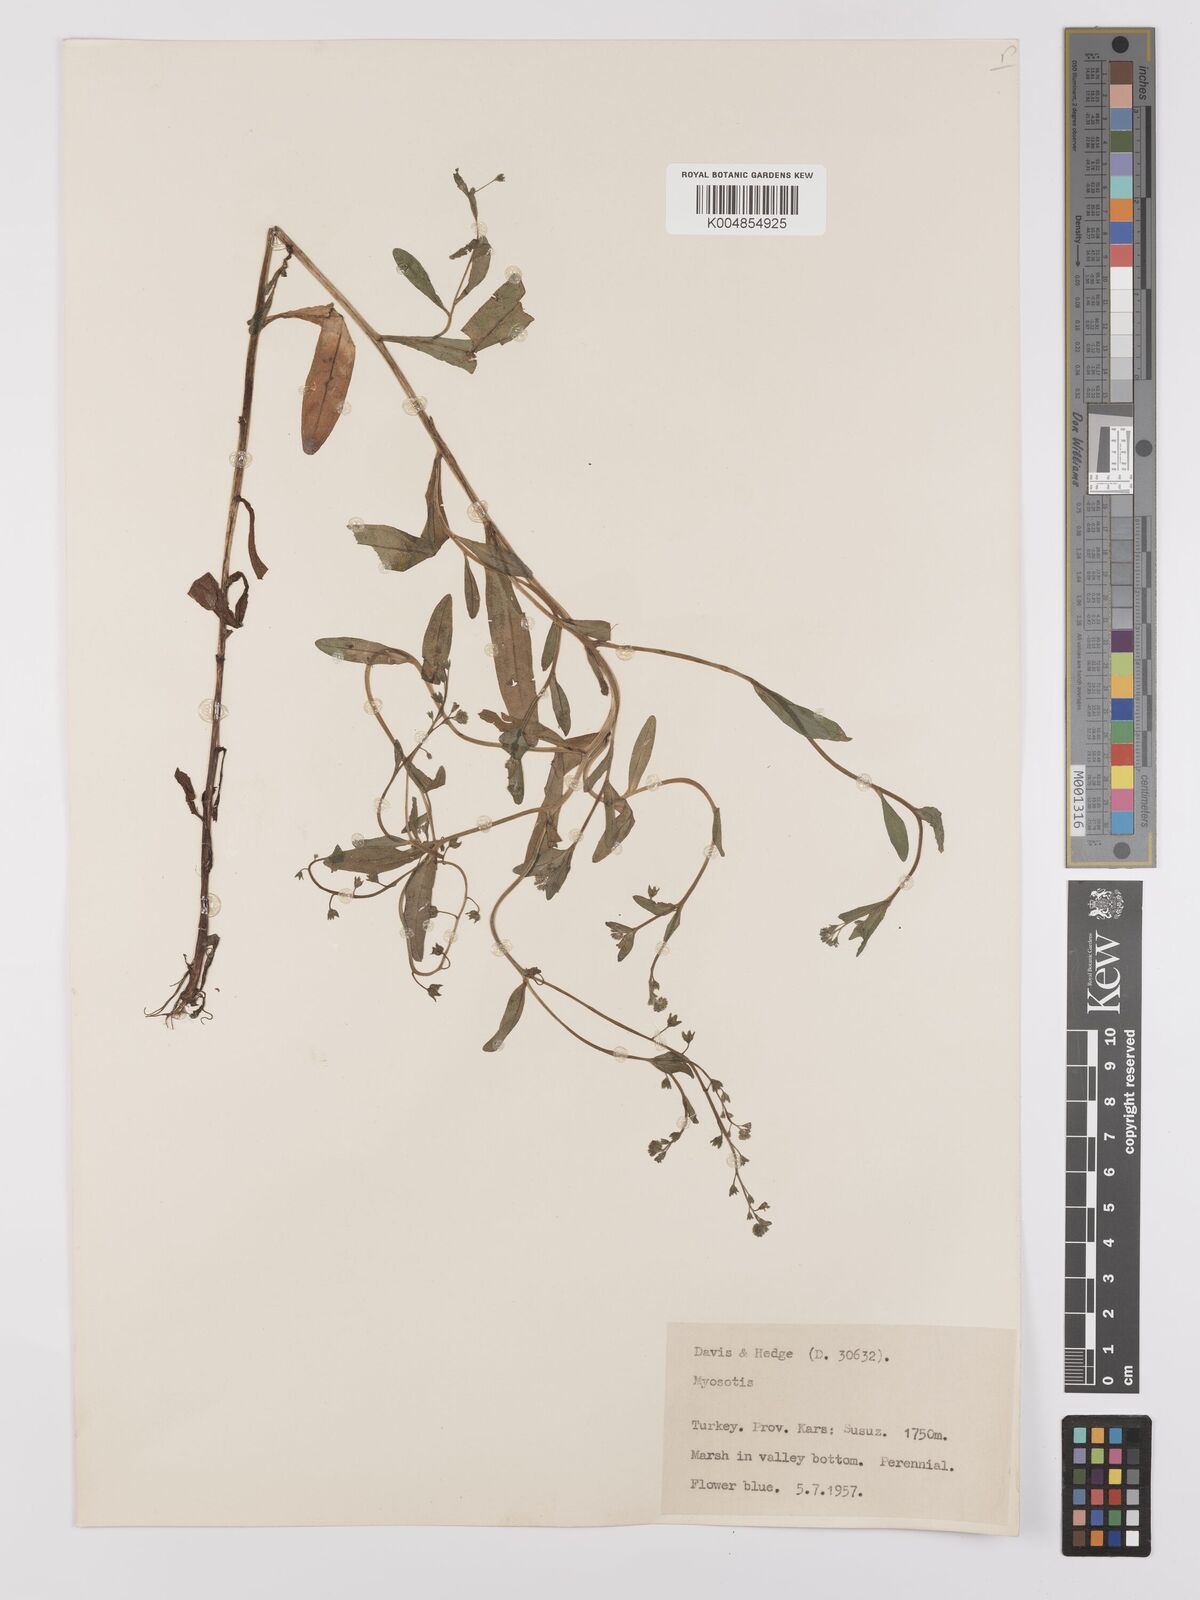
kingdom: Plantae
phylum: Tracheophyta
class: Magnoliopsida
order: Boraginales
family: Boraginaceae
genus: Myosotis
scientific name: Myosotis
